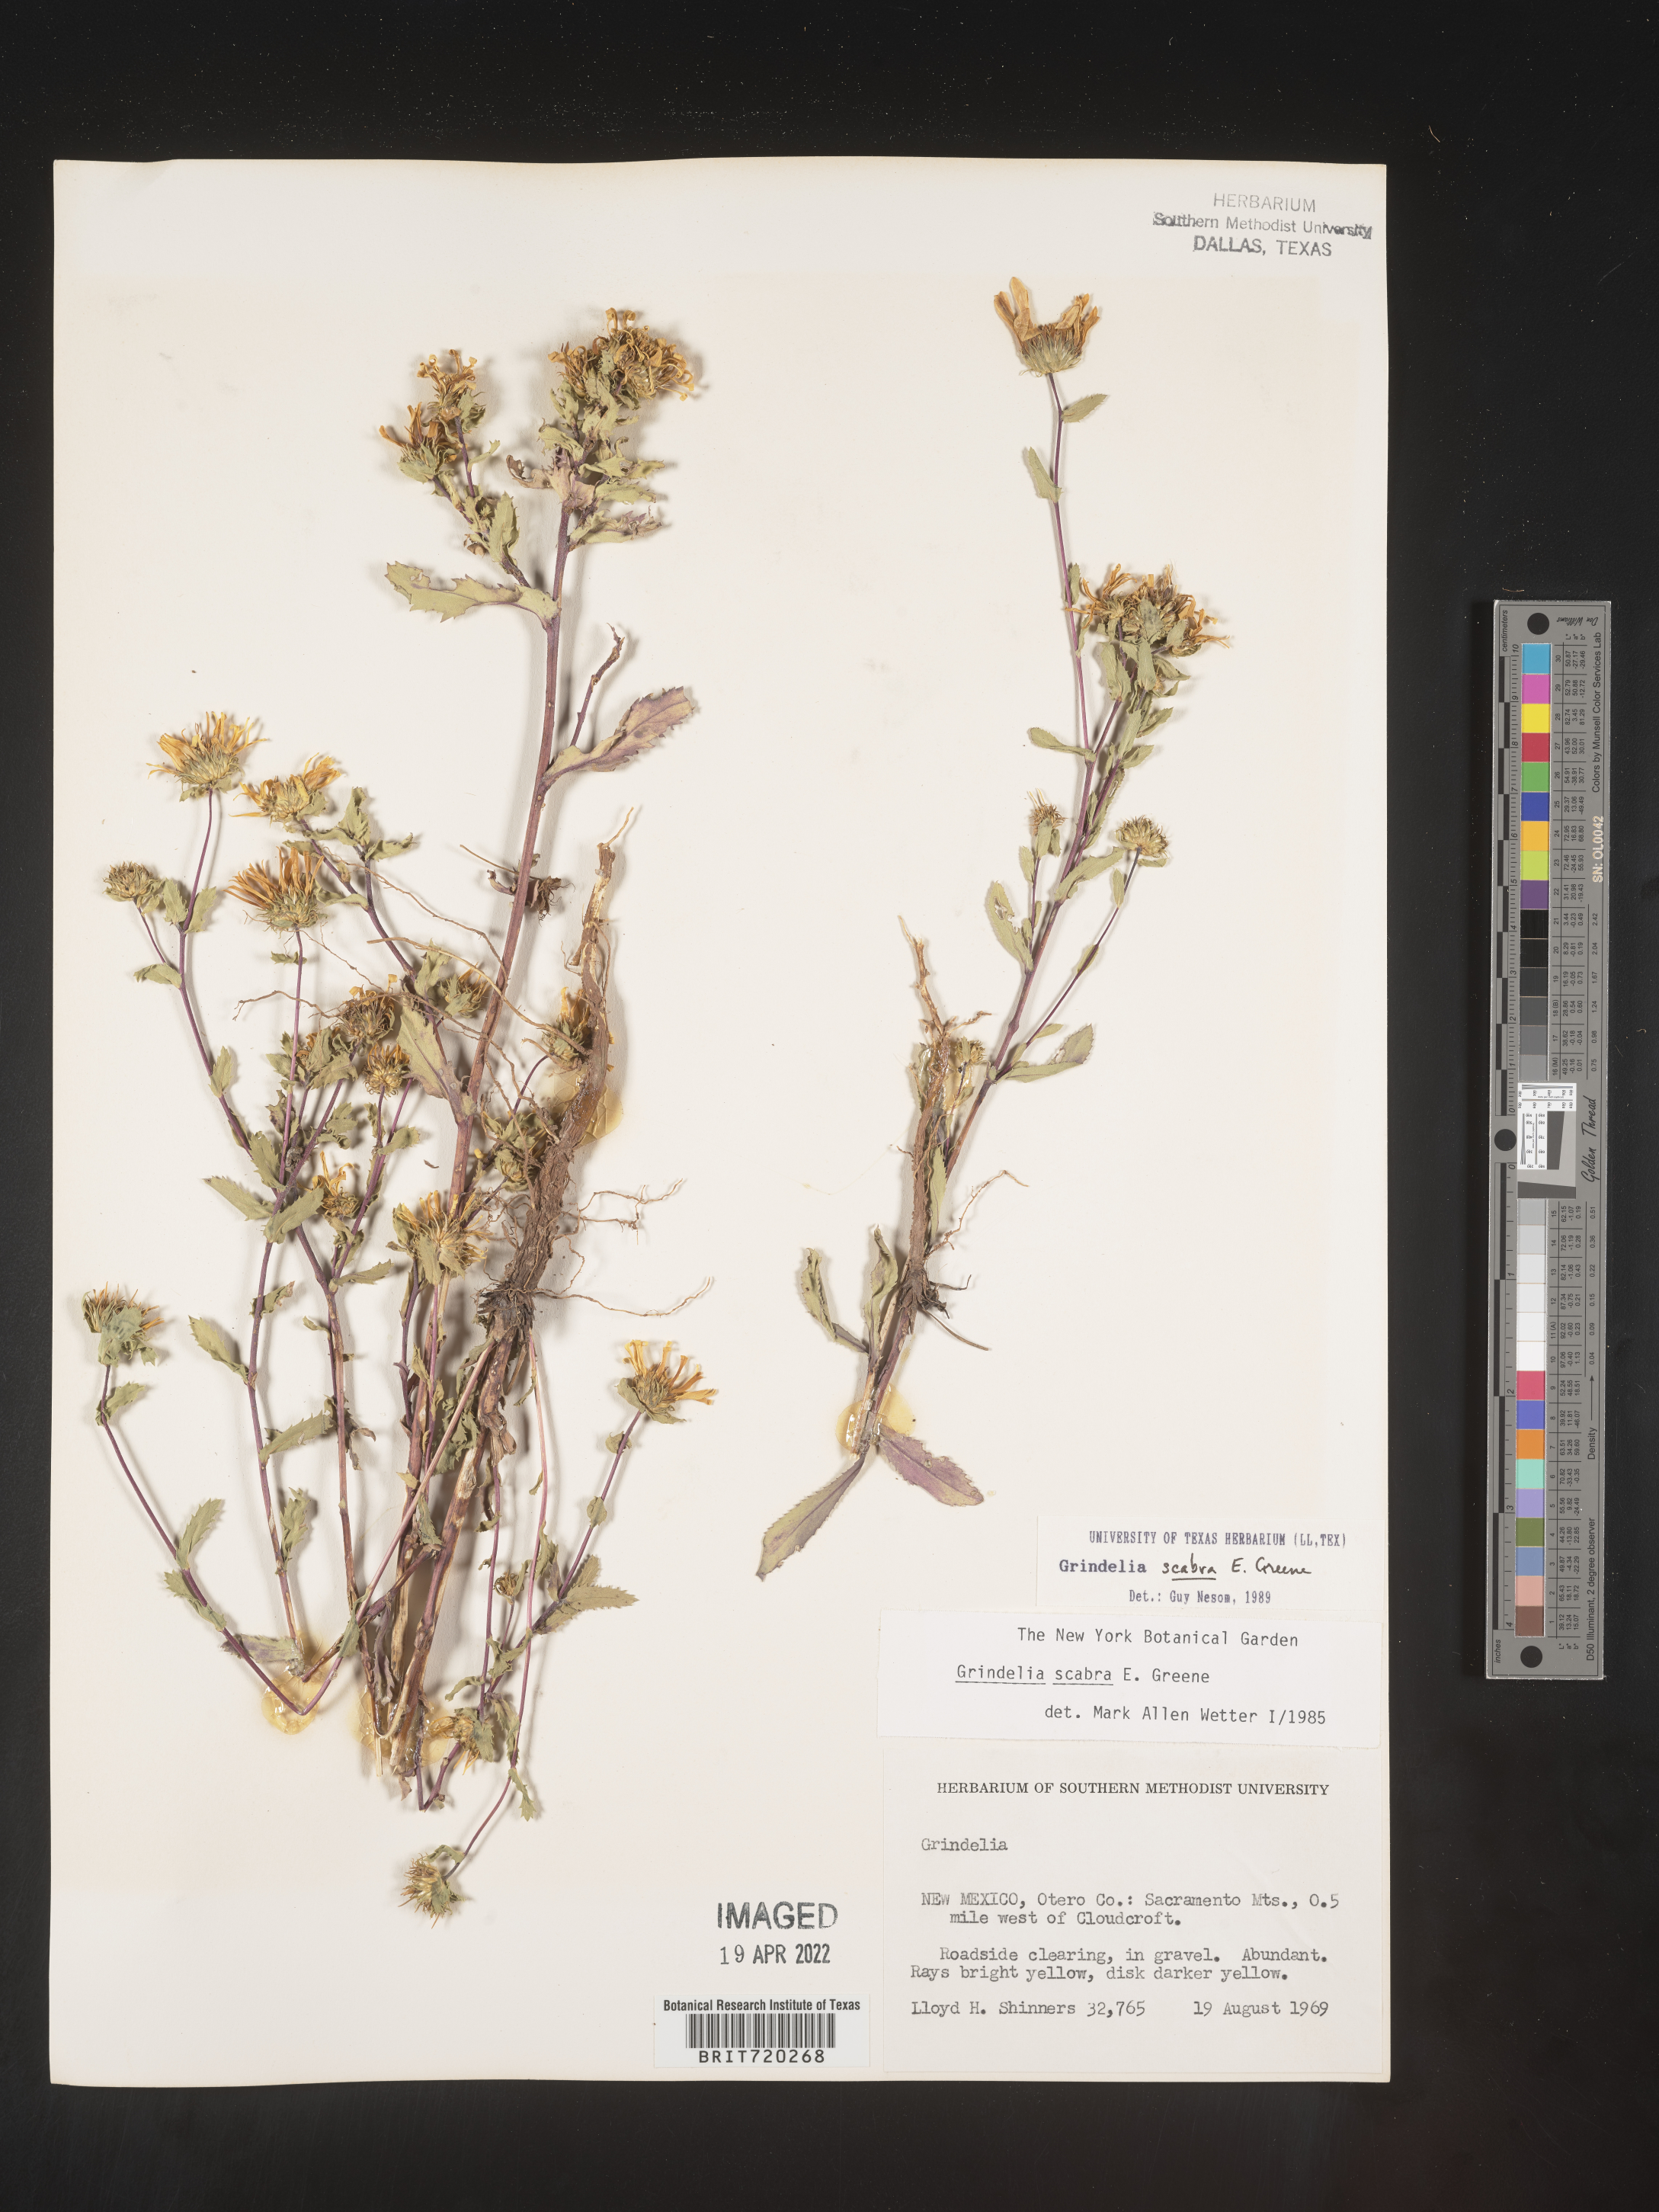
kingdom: Plantae
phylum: Tracheophyta
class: Magnoliopsida
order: Asterales
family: Asteraceae
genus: Grindelia
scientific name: Grindelia scabra
